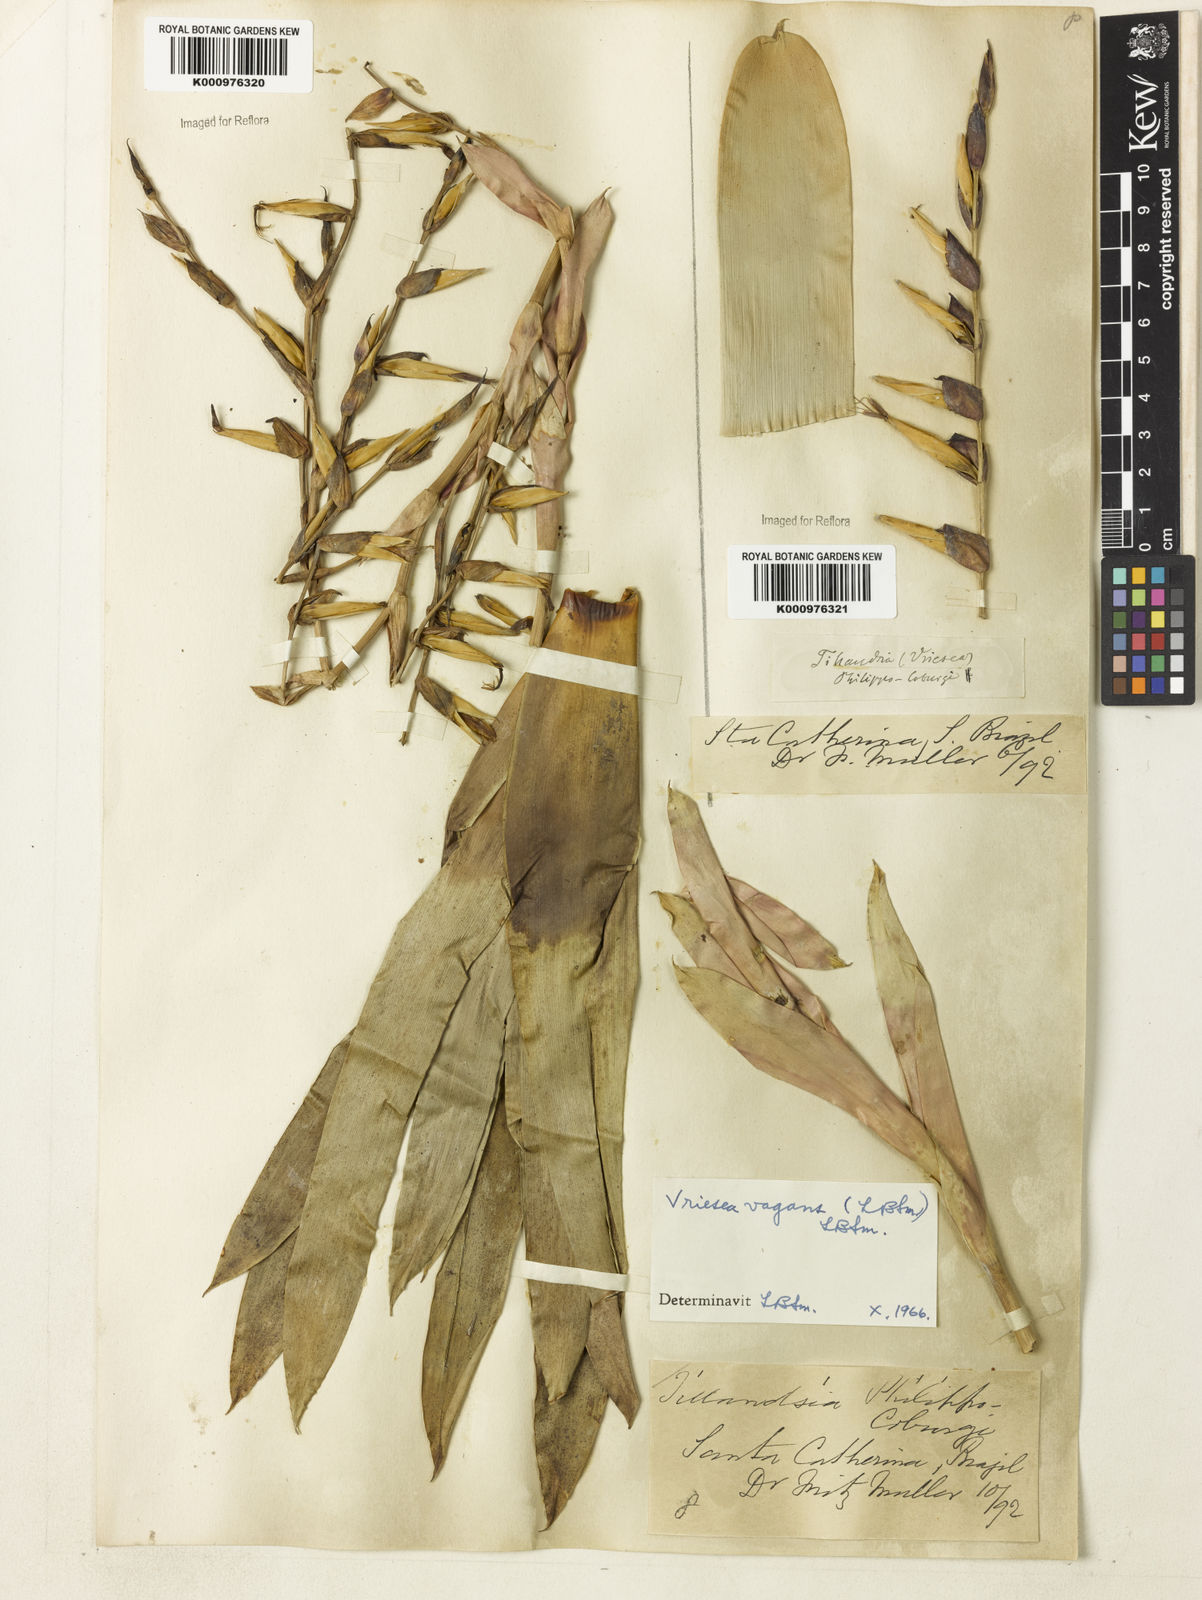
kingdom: Plantae
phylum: Tracheophyta
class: Liliopsida
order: Poales
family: Bromeliaceae
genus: Vriesea
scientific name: Vriesea vagans
